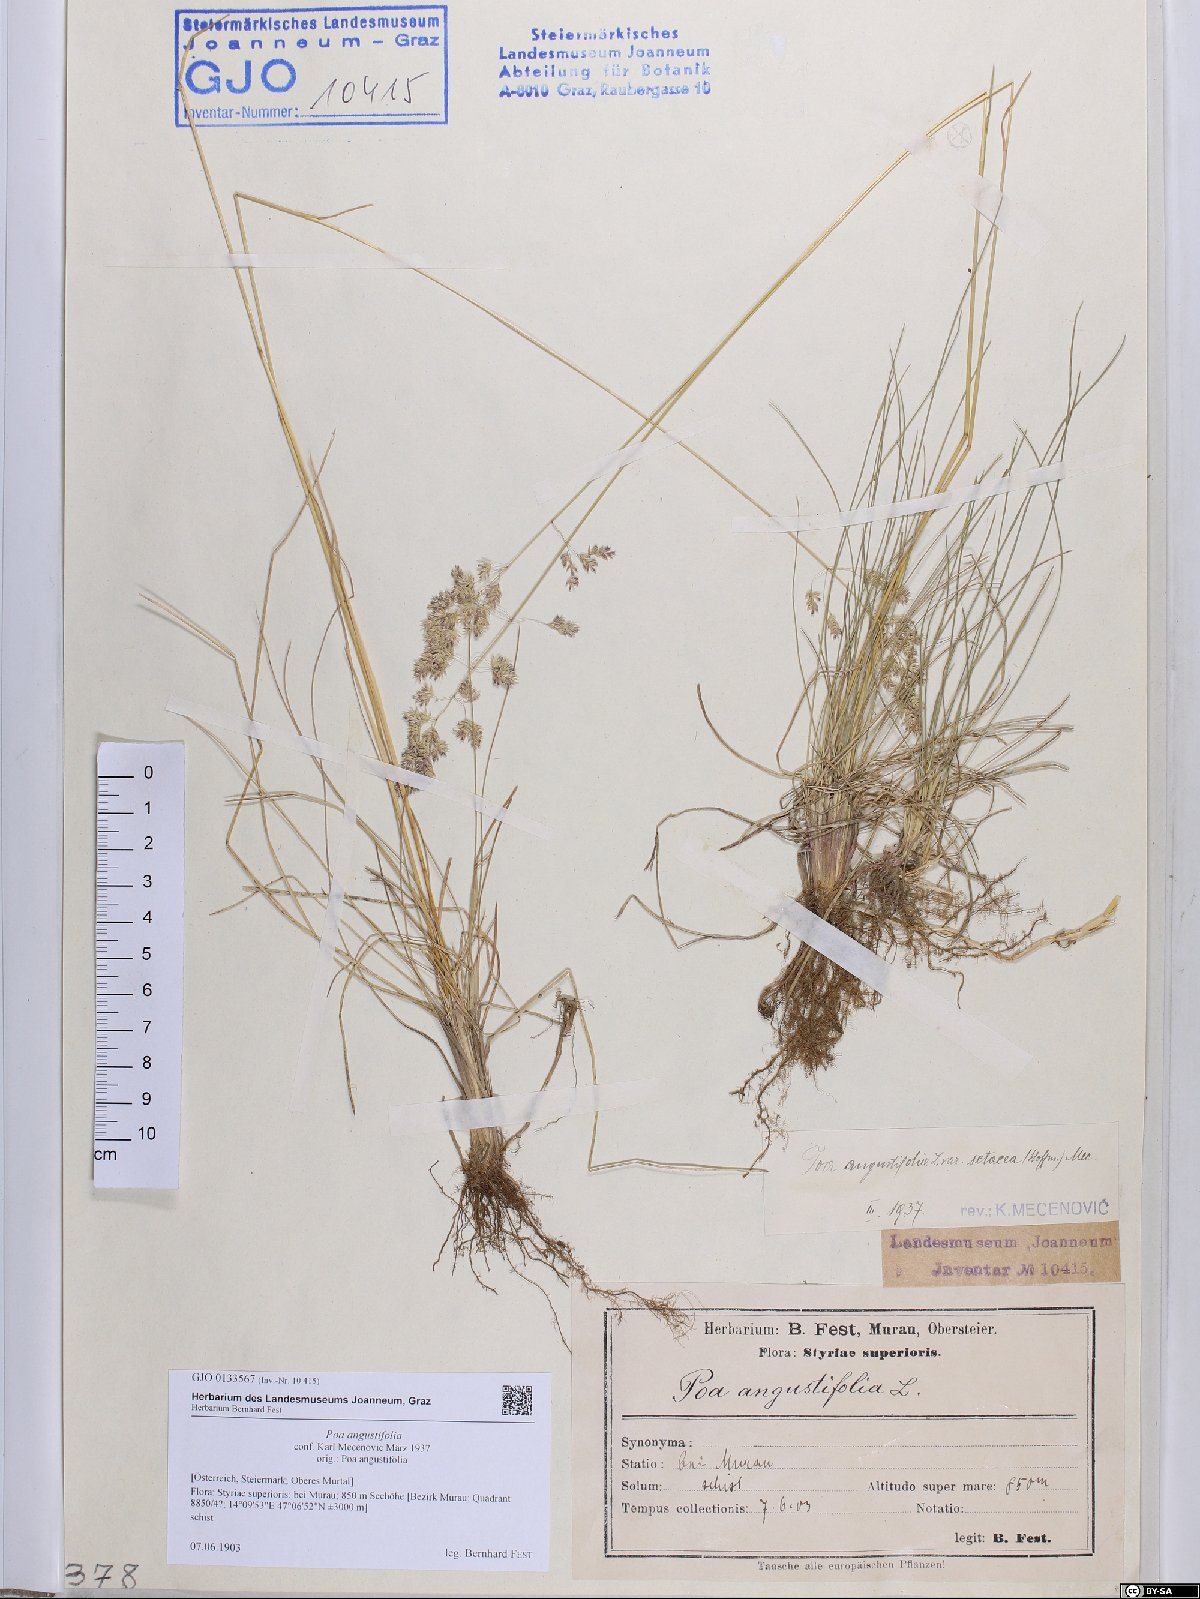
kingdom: Plantae
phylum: Tracheophyta
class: Liliopsida
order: Poales
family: Poaceae
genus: Poa
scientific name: Poa angustifolia
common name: Narrow-leaved meadow-grass
